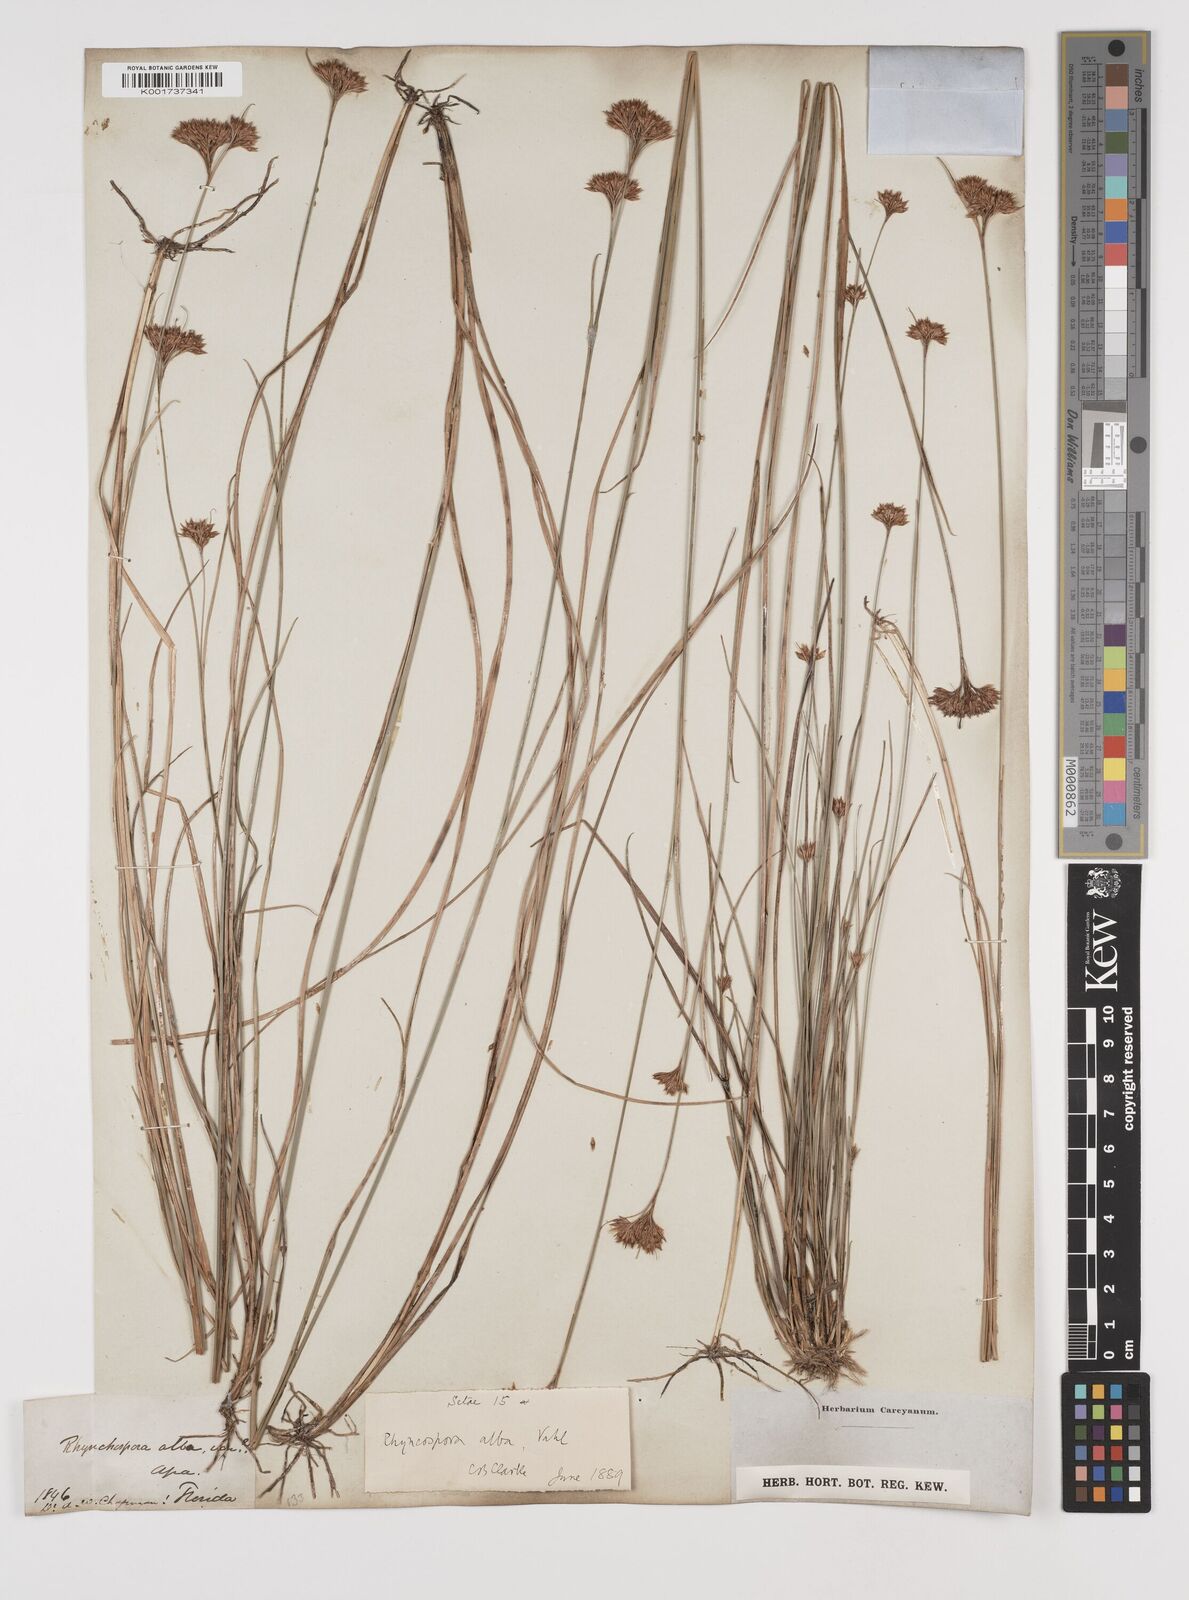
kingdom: Plantae
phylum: Tracheophyta
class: Liliopsida
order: Poales
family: Cyperaceae
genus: Rhynchospora
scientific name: Rhynchospora alba
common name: White beak-sedge
